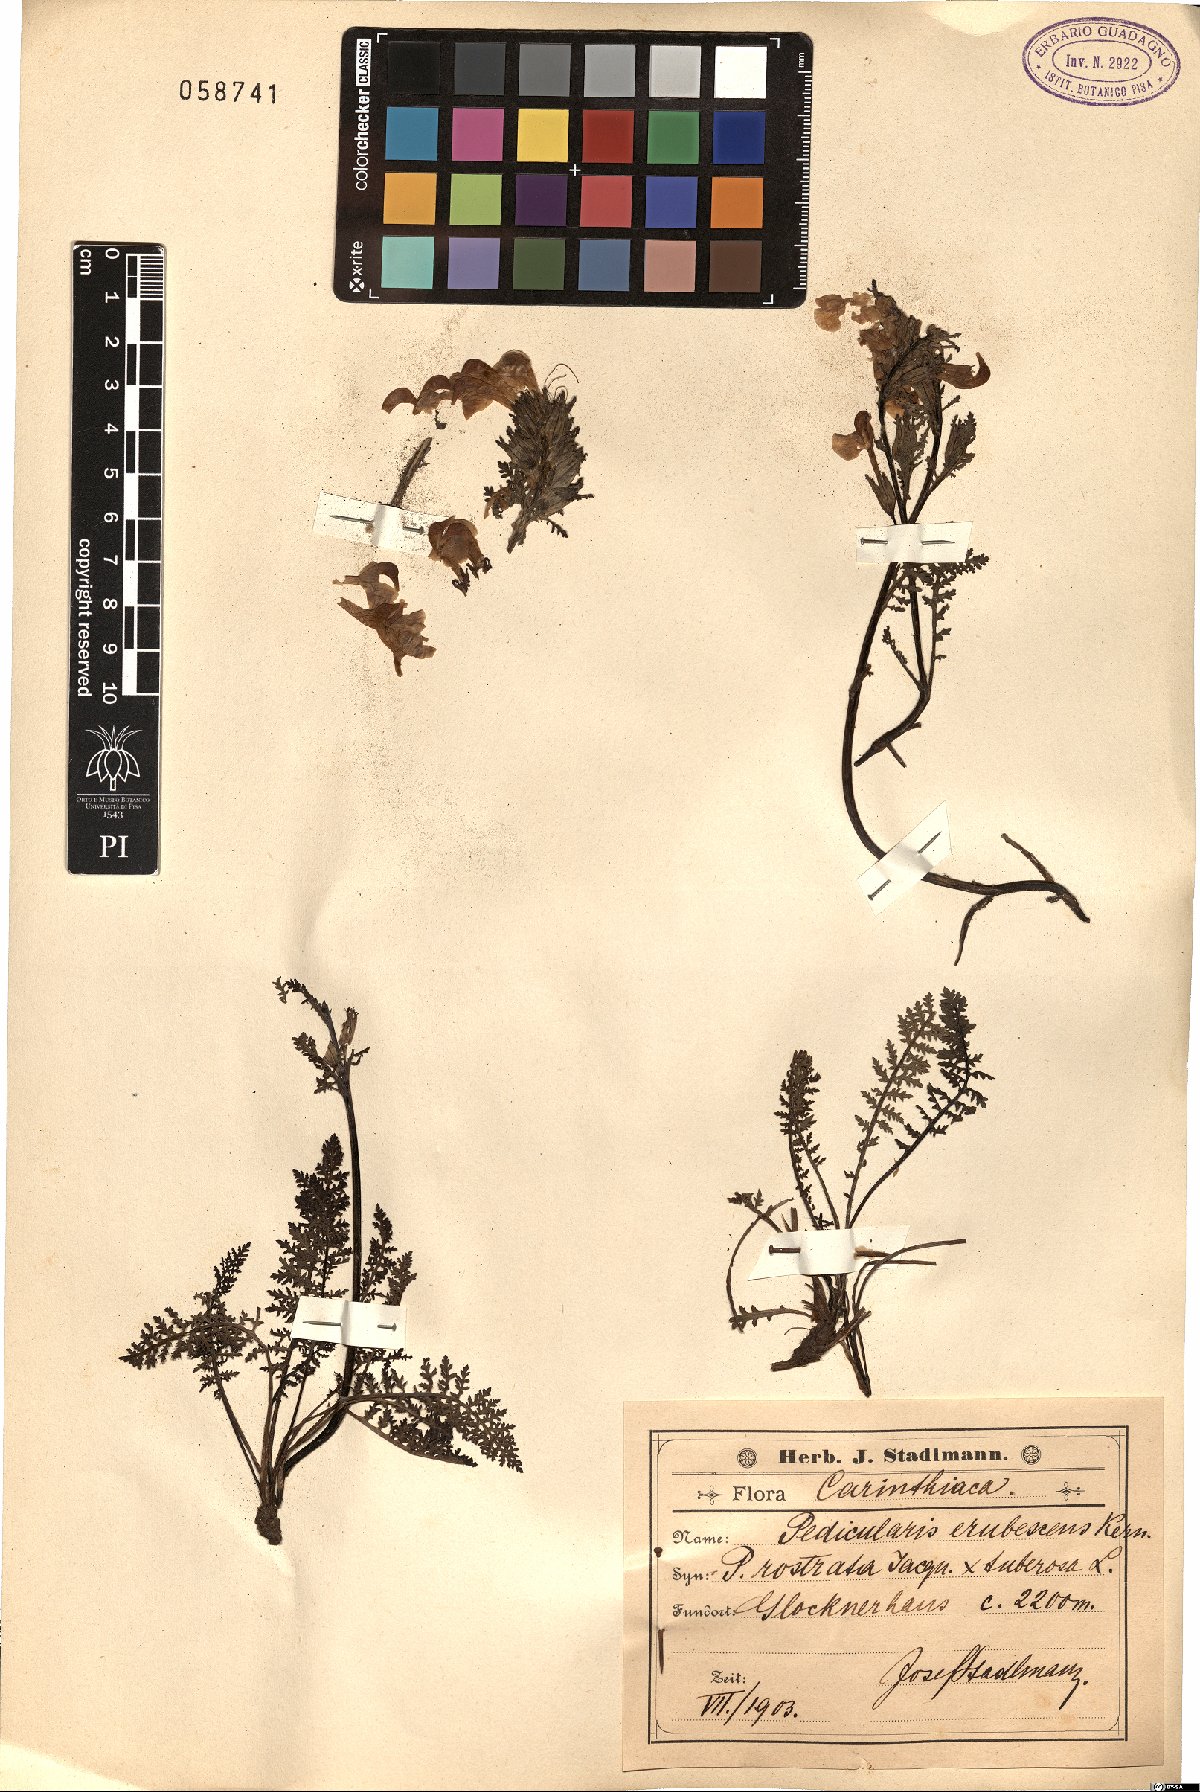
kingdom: Plantae
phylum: Tracheophyta
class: Magnoliopsida
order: Lamiales
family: Orobanchaceae
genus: Pedicularis
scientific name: Pedicularis rostratocapitata
